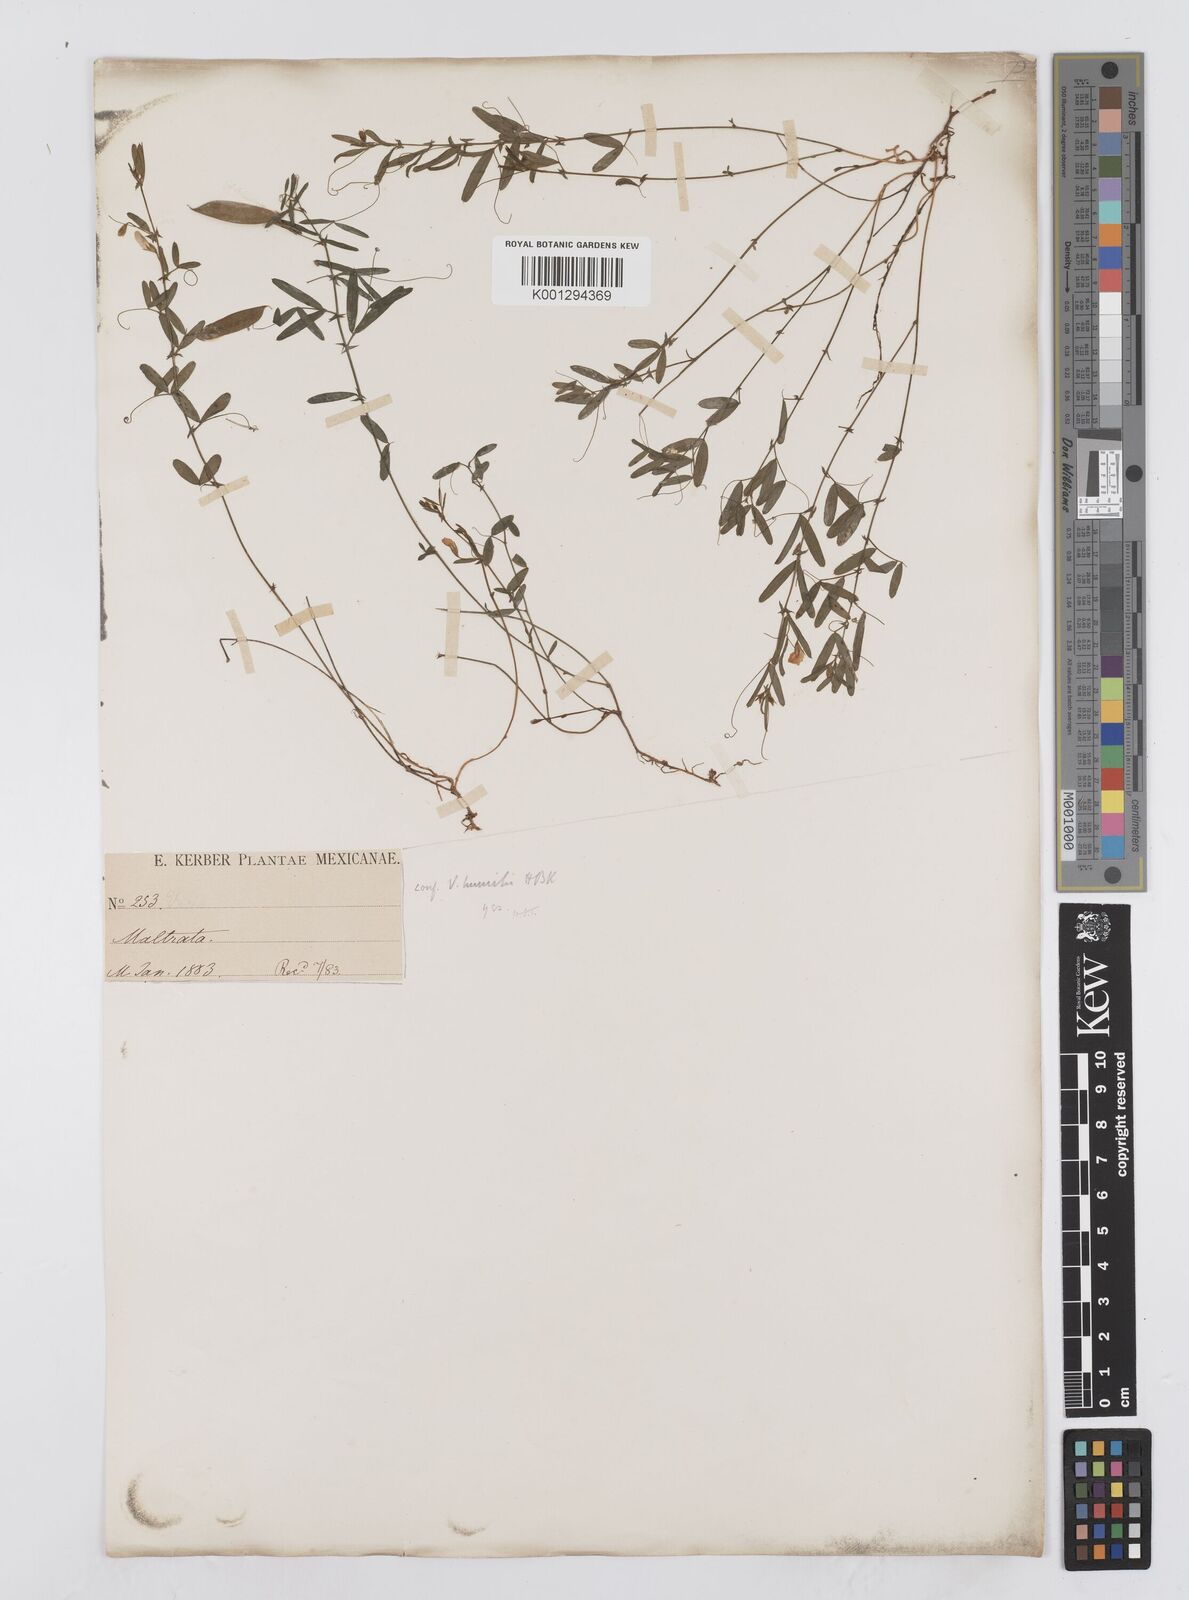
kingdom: Plantae
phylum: Tracheophyta
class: Magnoliopsida
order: Fabales
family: Fabaceae
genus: Vicia
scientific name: Vicia humilis
